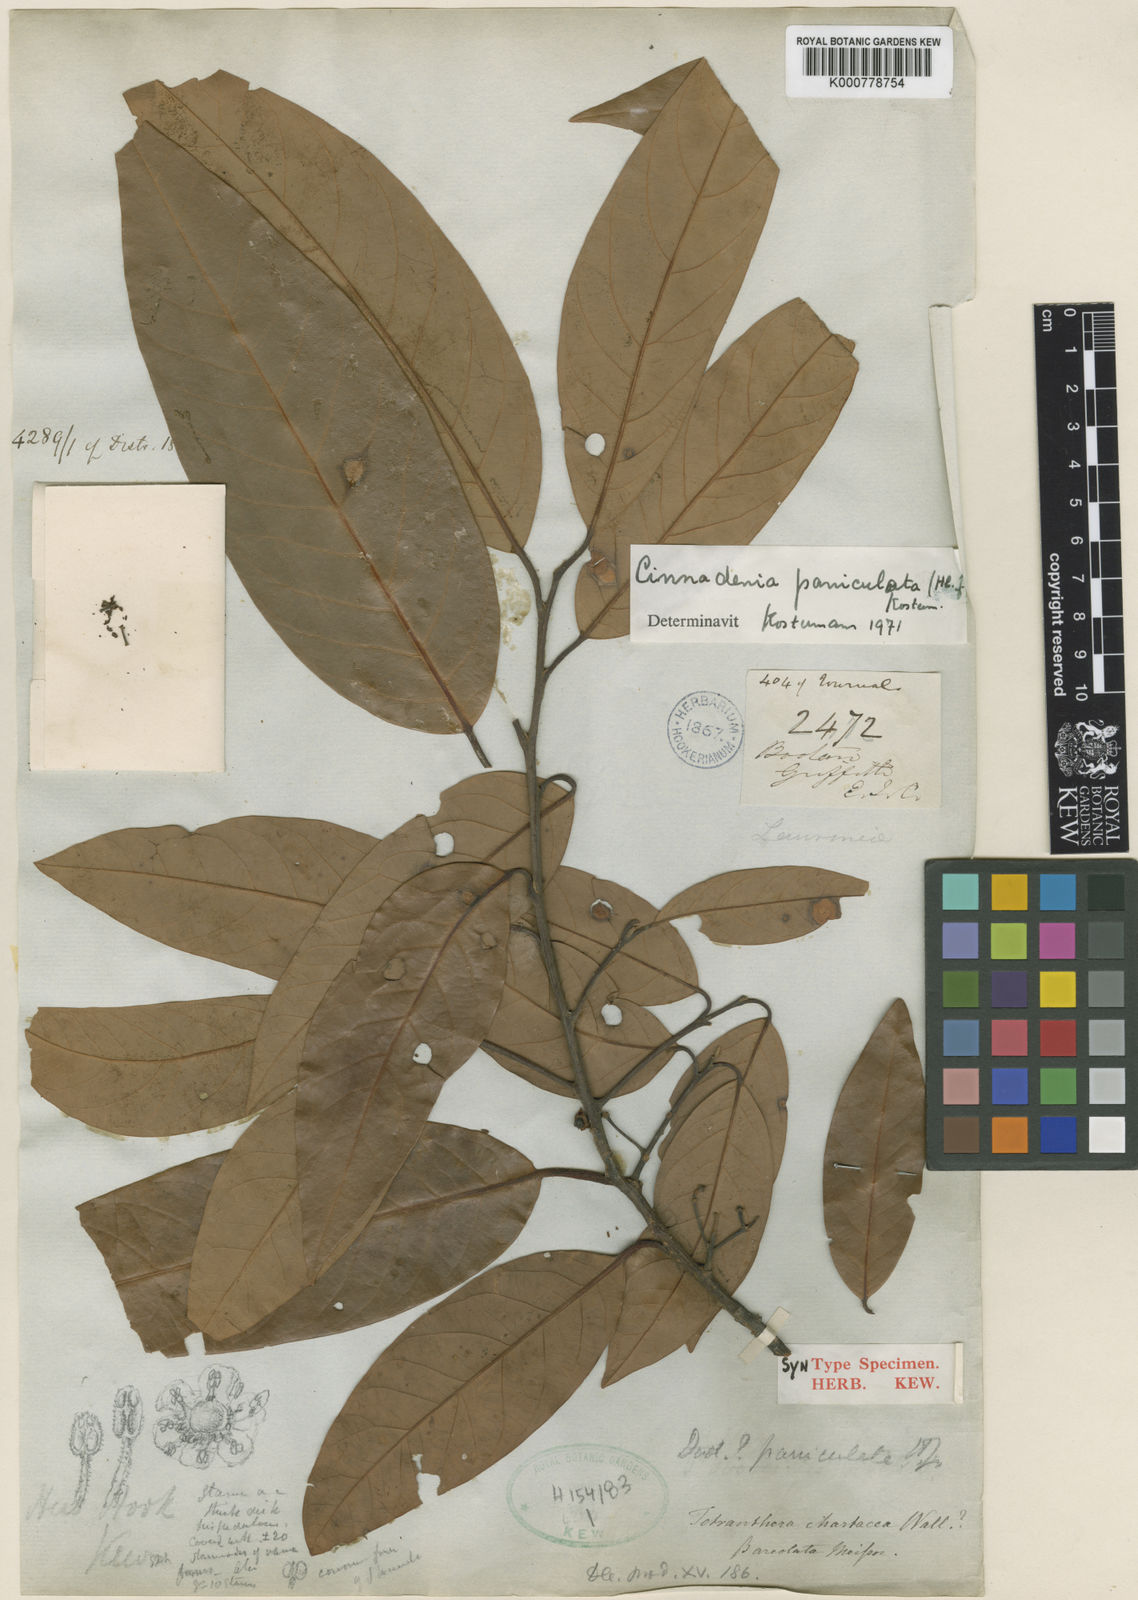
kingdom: Plantae
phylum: Tracheophyta
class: Magnoliopsida
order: Laurales
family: Lauraceae
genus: Cinnadenia
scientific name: Cinnadenia paniculata
